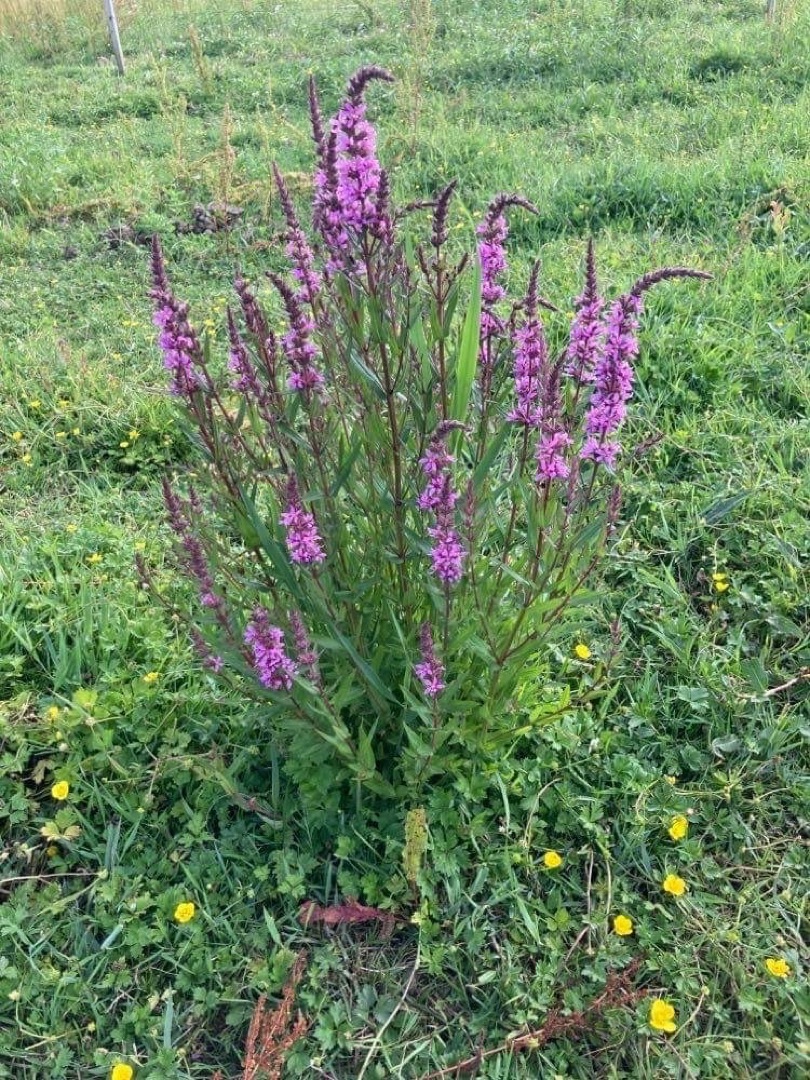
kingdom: Plantae
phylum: Tracheophyta
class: Magnoliopsida
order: Myrtales
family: Lythraceae
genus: Lythrum
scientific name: Lythrum salicaria
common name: Kattehale
